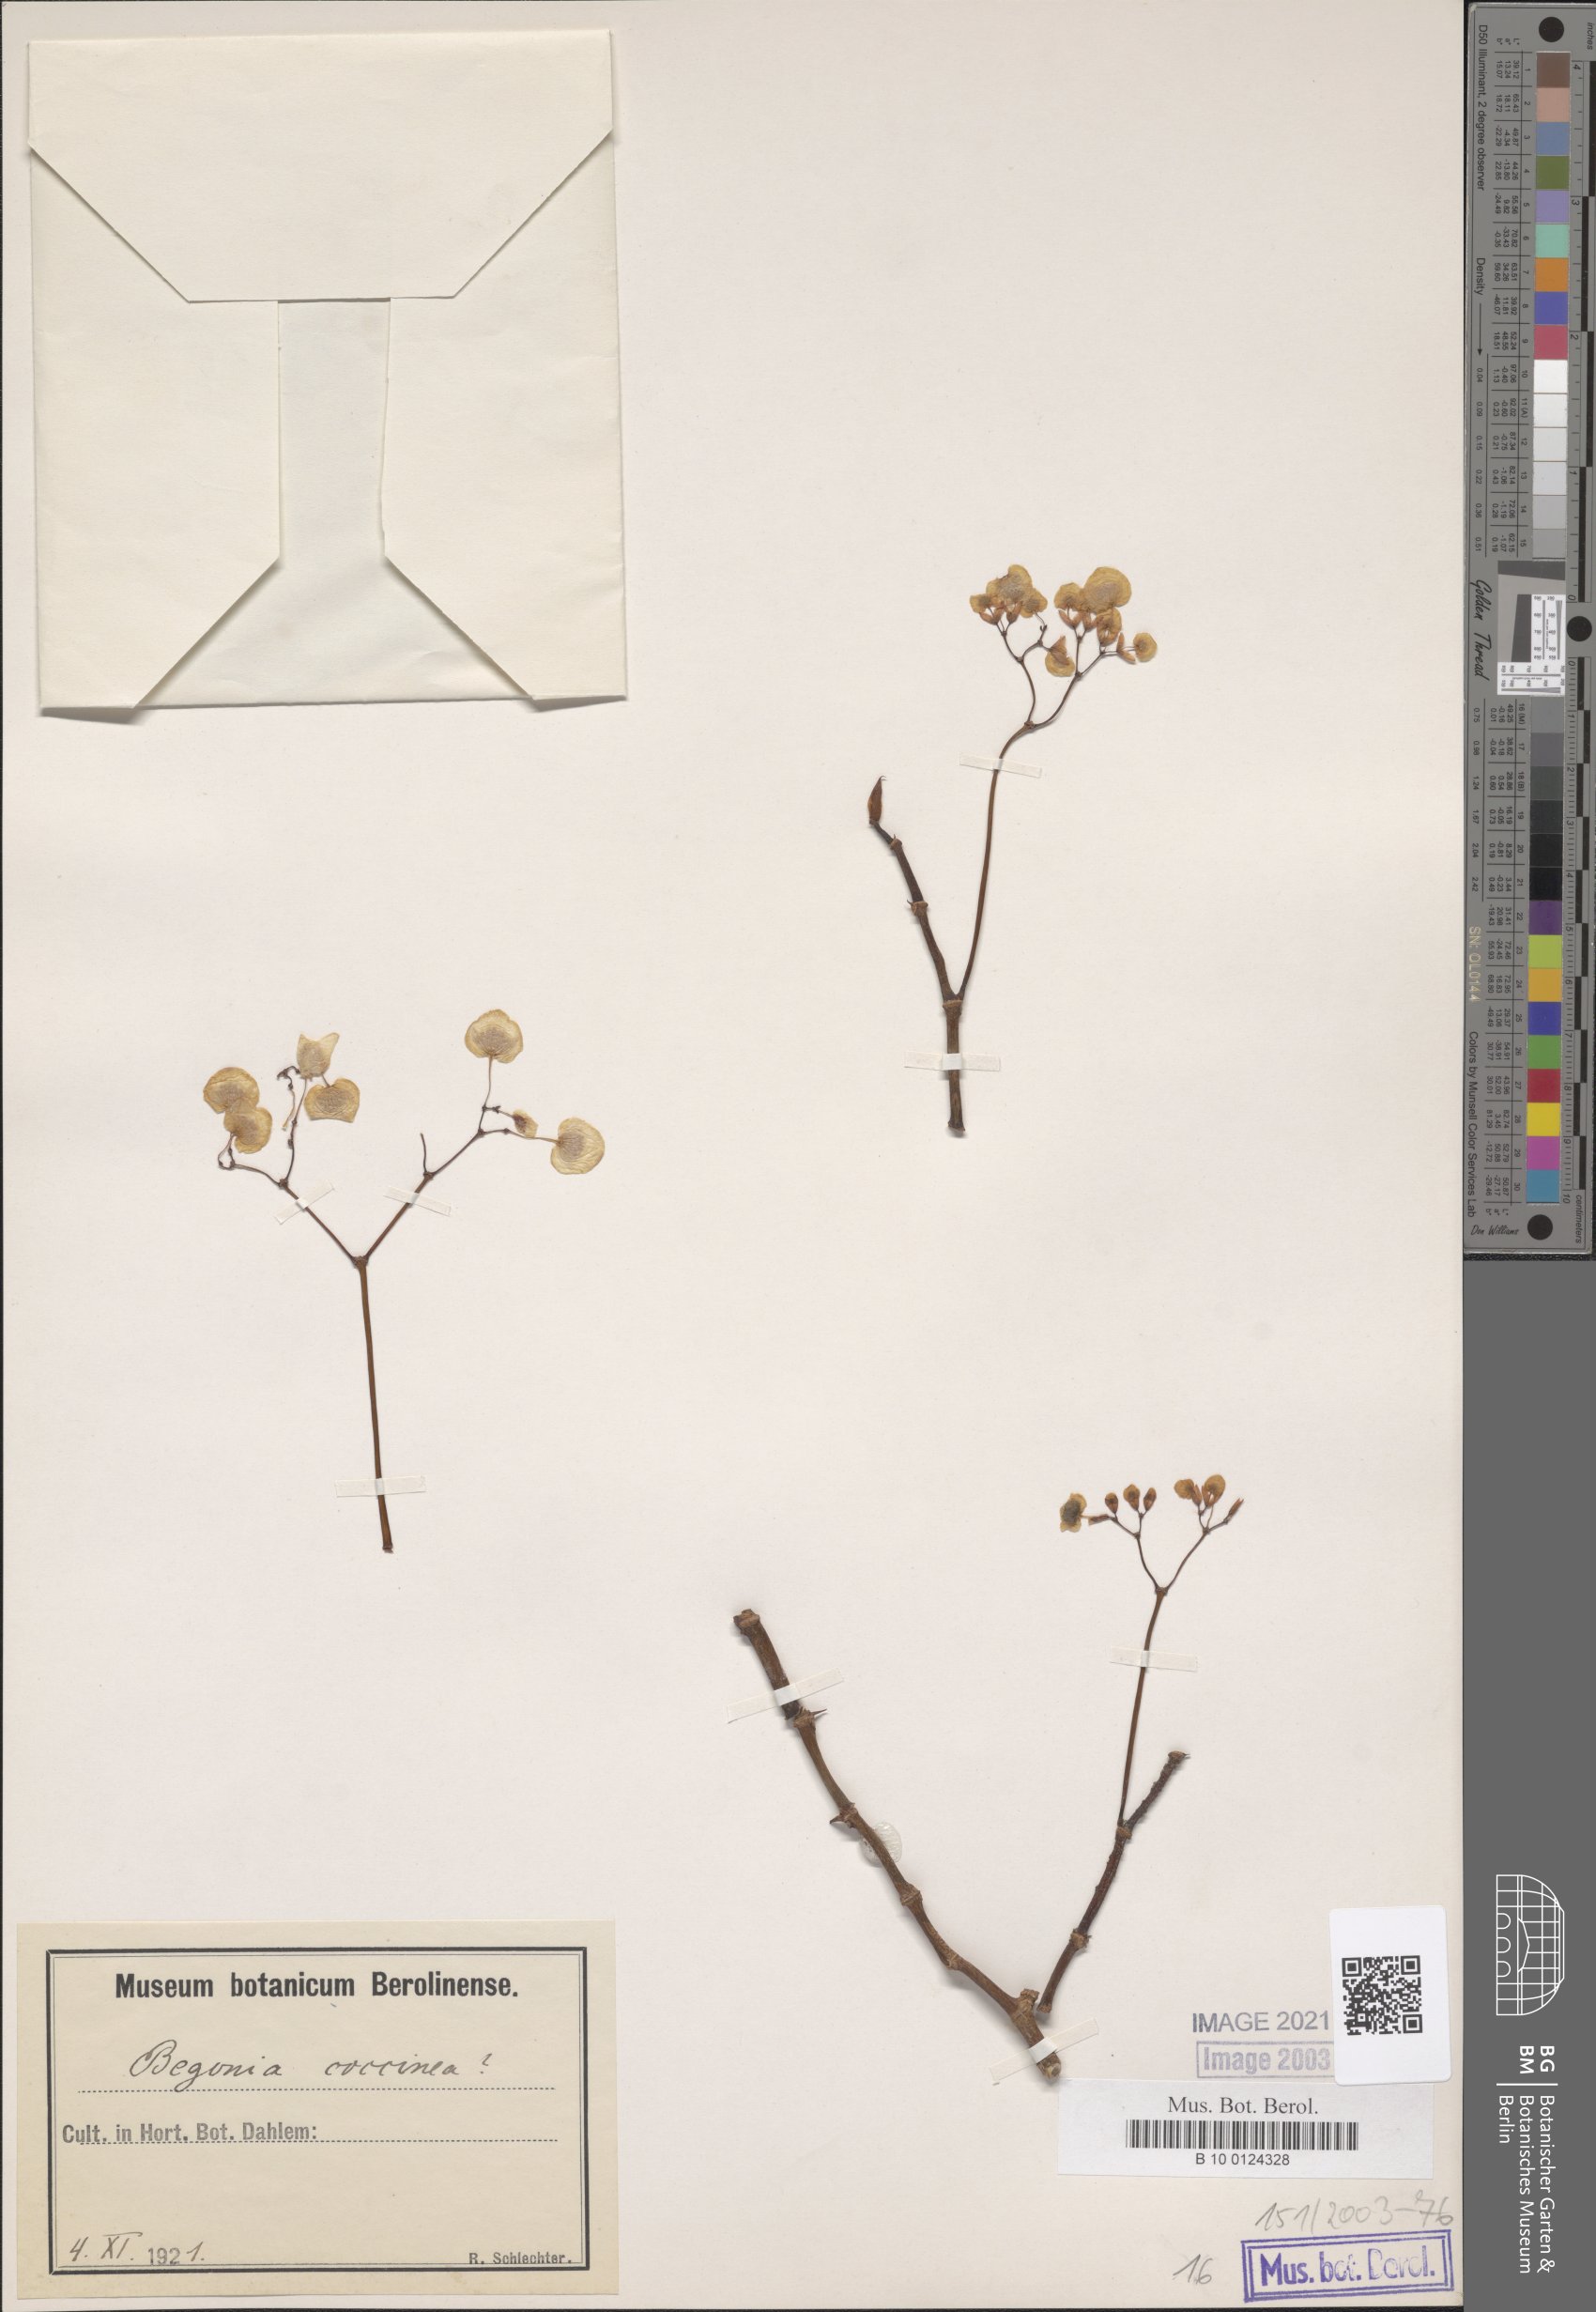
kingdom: Plantae
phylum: Tracheophyta
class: Magnoliopsida
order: Cucurbitales
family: Begoniaceae
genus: Begonia
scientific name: Begonia coccinea
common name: Angel-wing begonia
